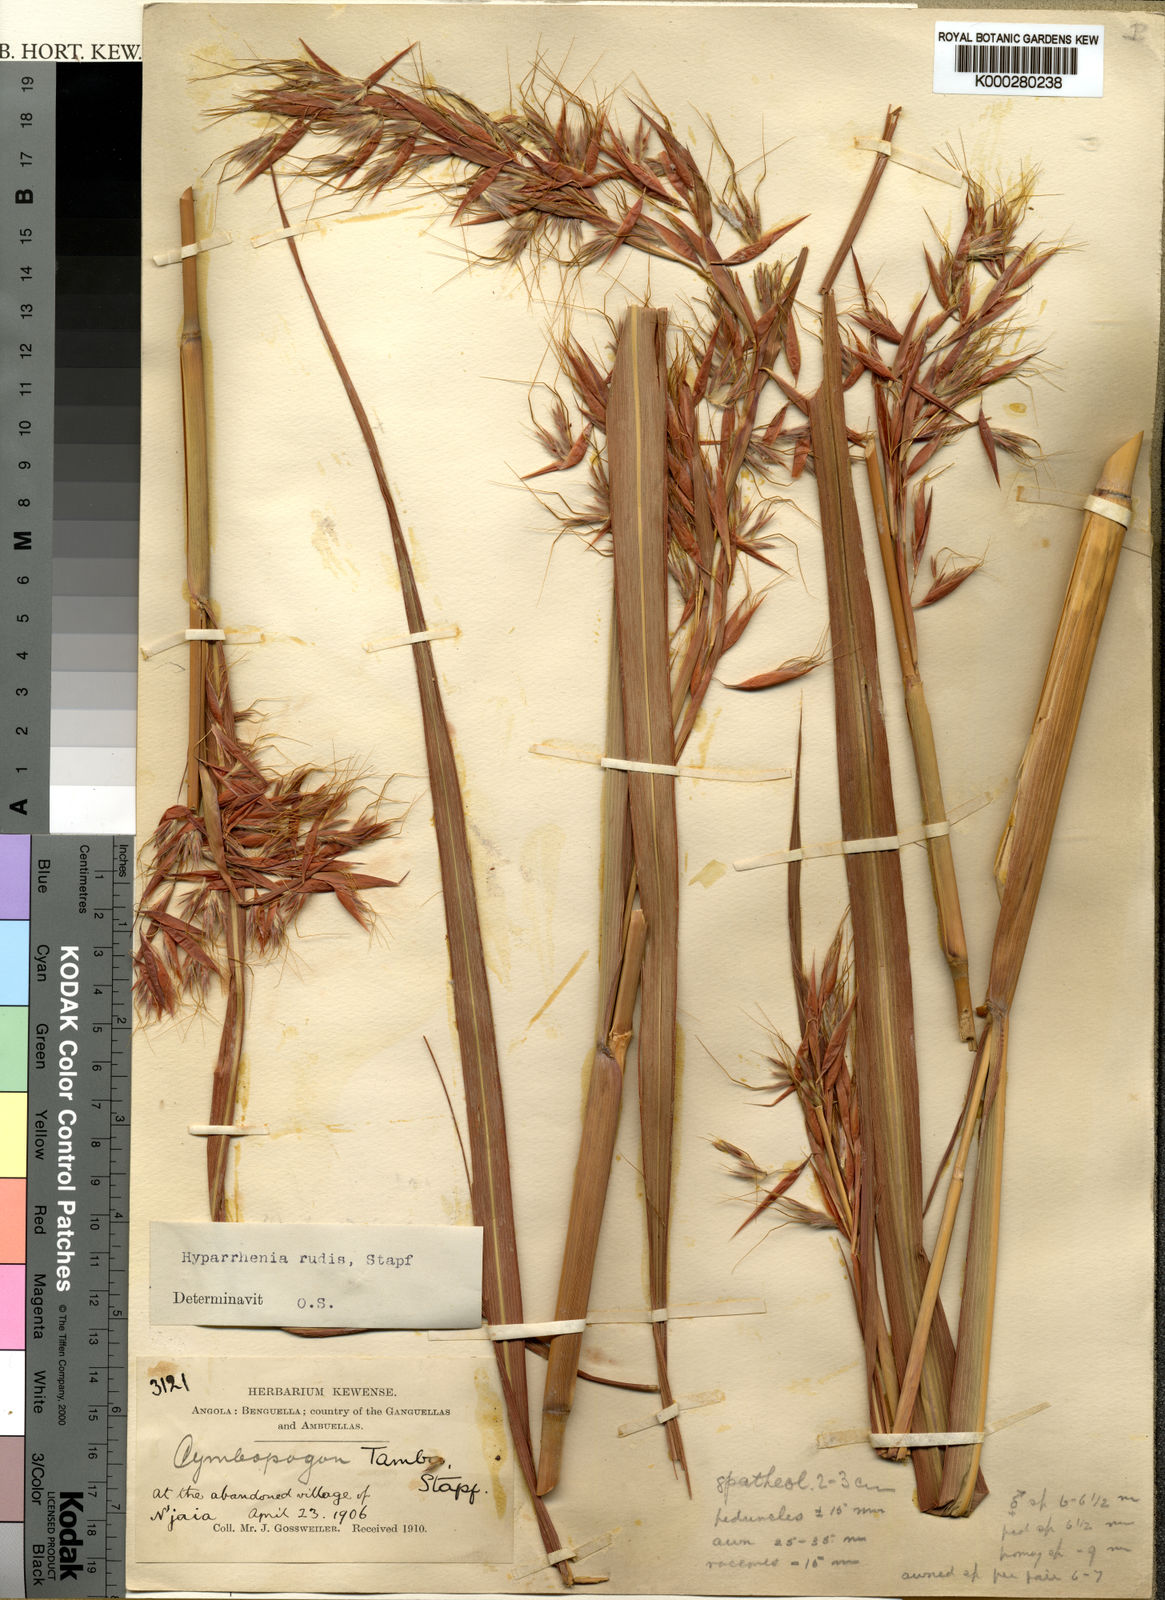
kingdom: Plantae
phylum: Tracheophyta
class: Liliopsida
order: Poales
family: Poaceae
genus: Hyparrhenia
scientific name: Hyparrhenia rudis
